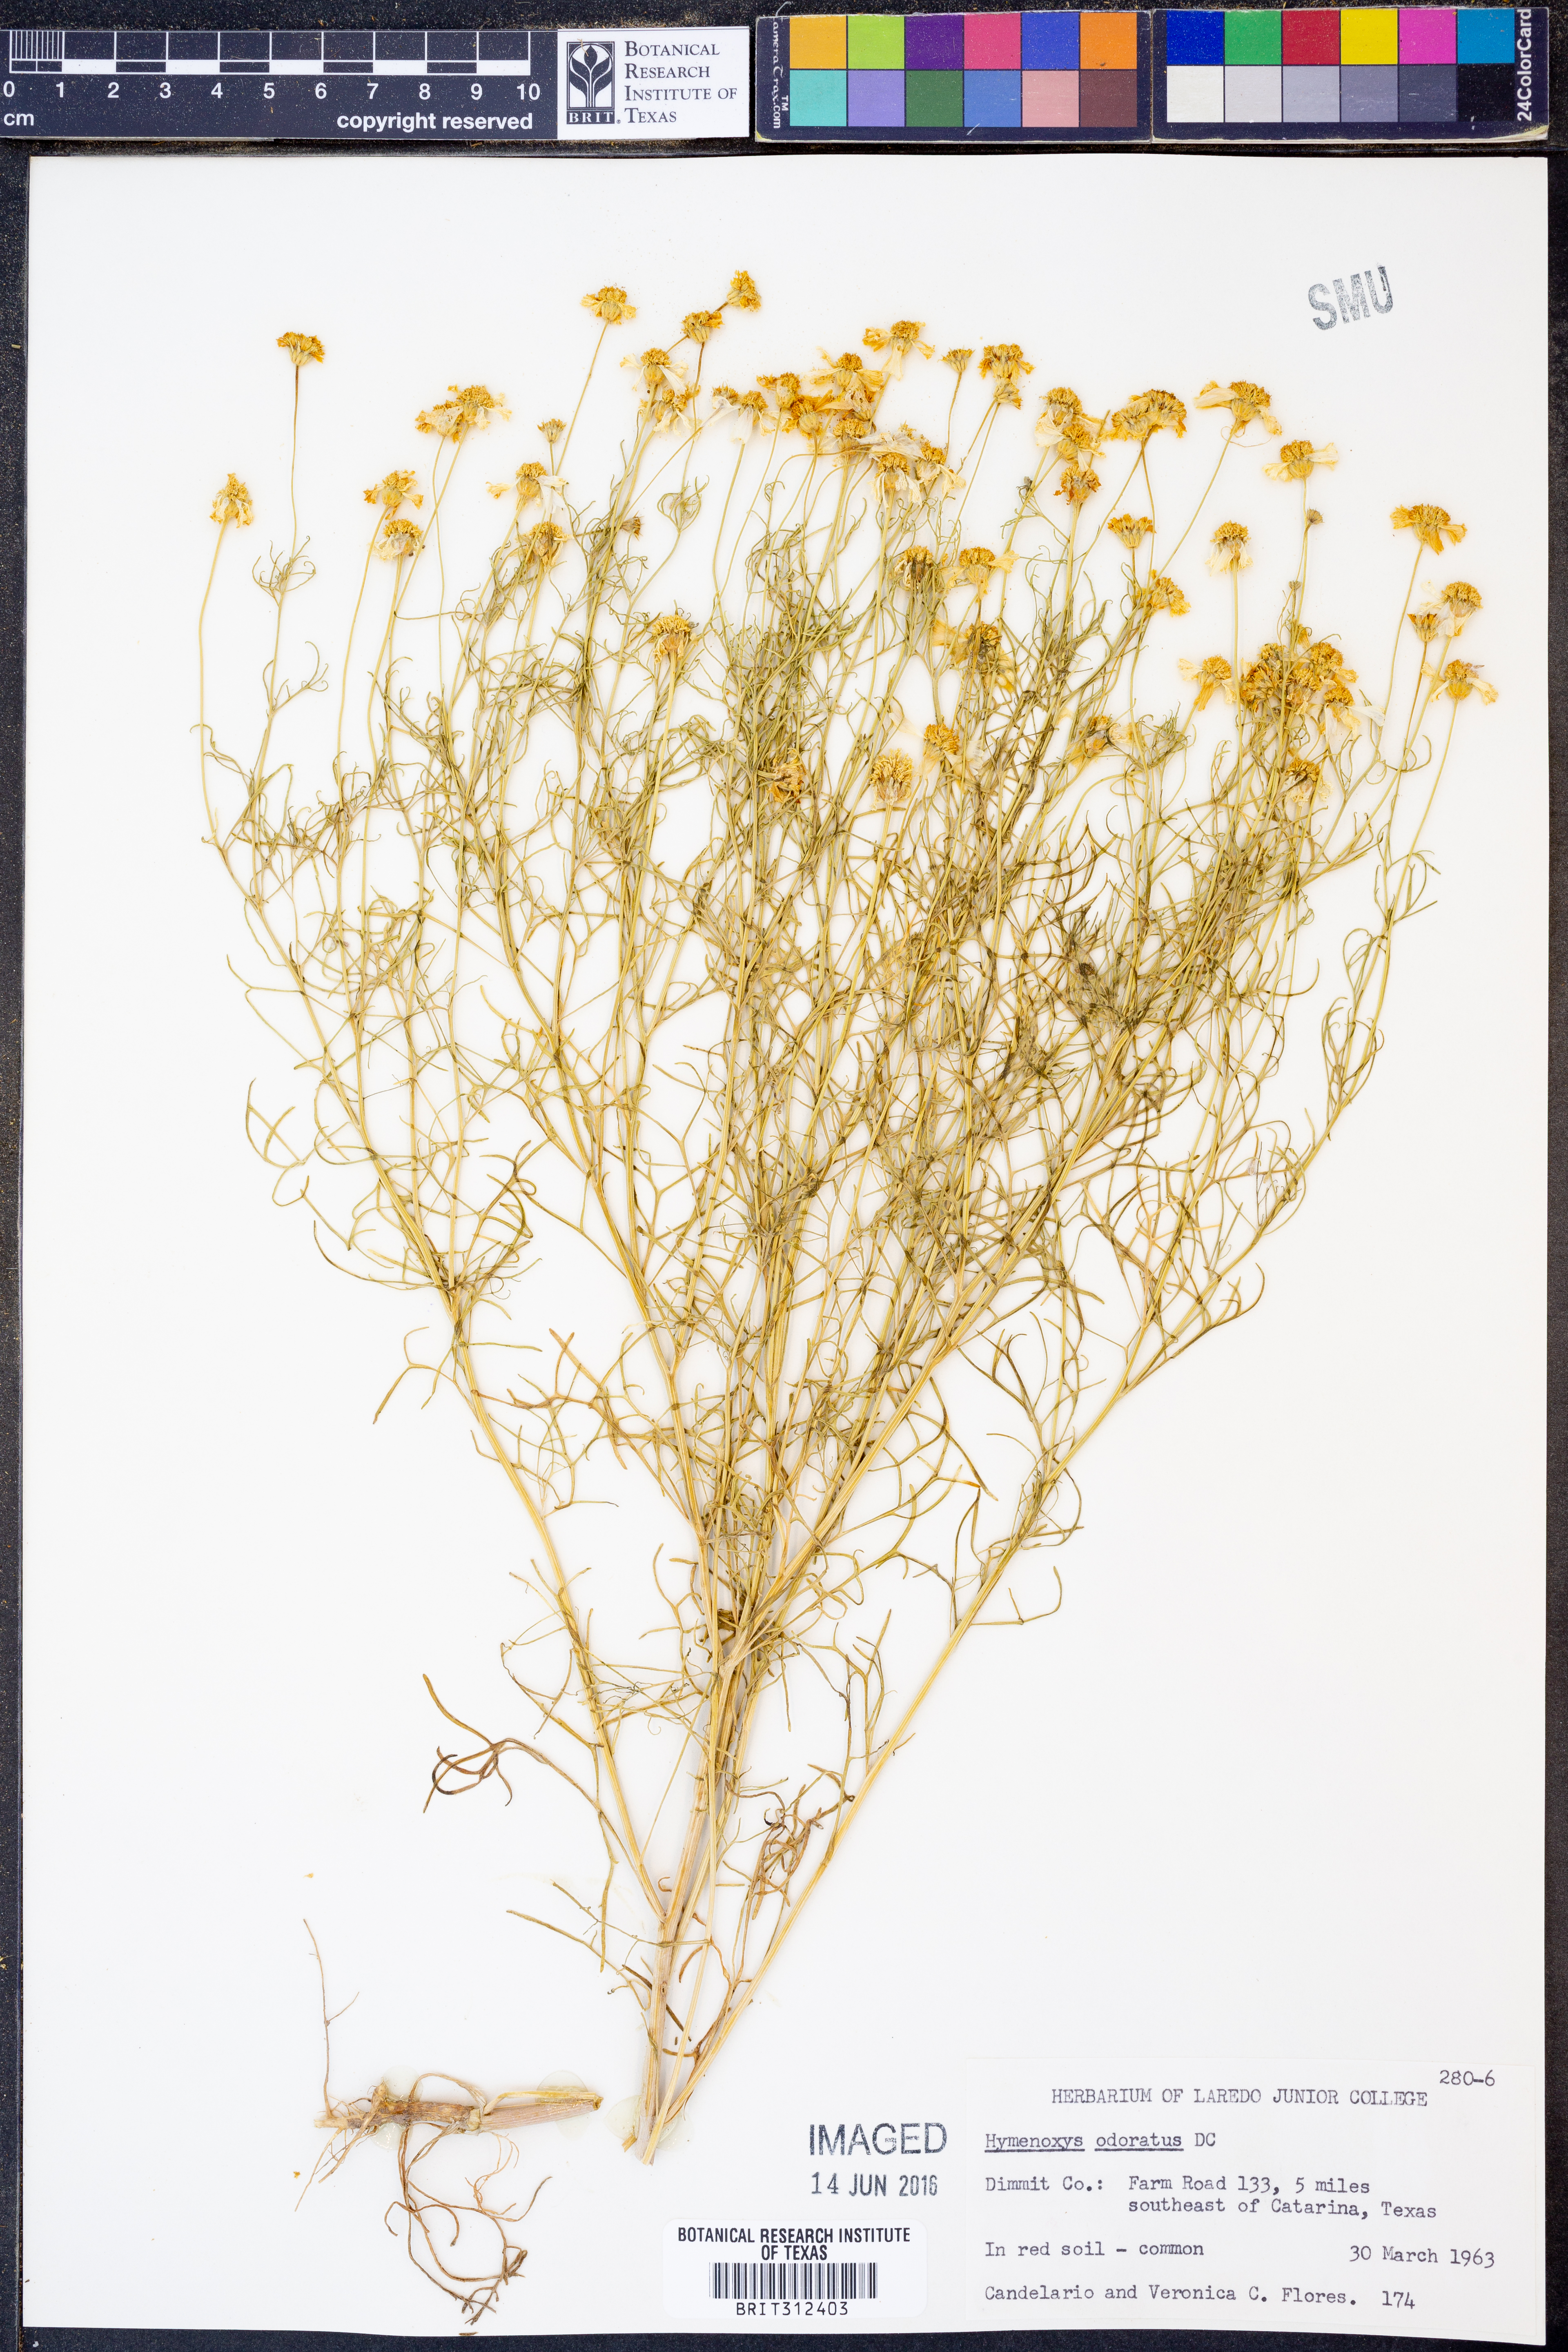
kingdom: Plantae
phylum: Tracheophyta
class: Magnoliopsida
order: Asterales
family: Asteraceae
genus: Hymenoxys
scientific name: Hymenoxys odorata
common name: Bitter rubberweed
